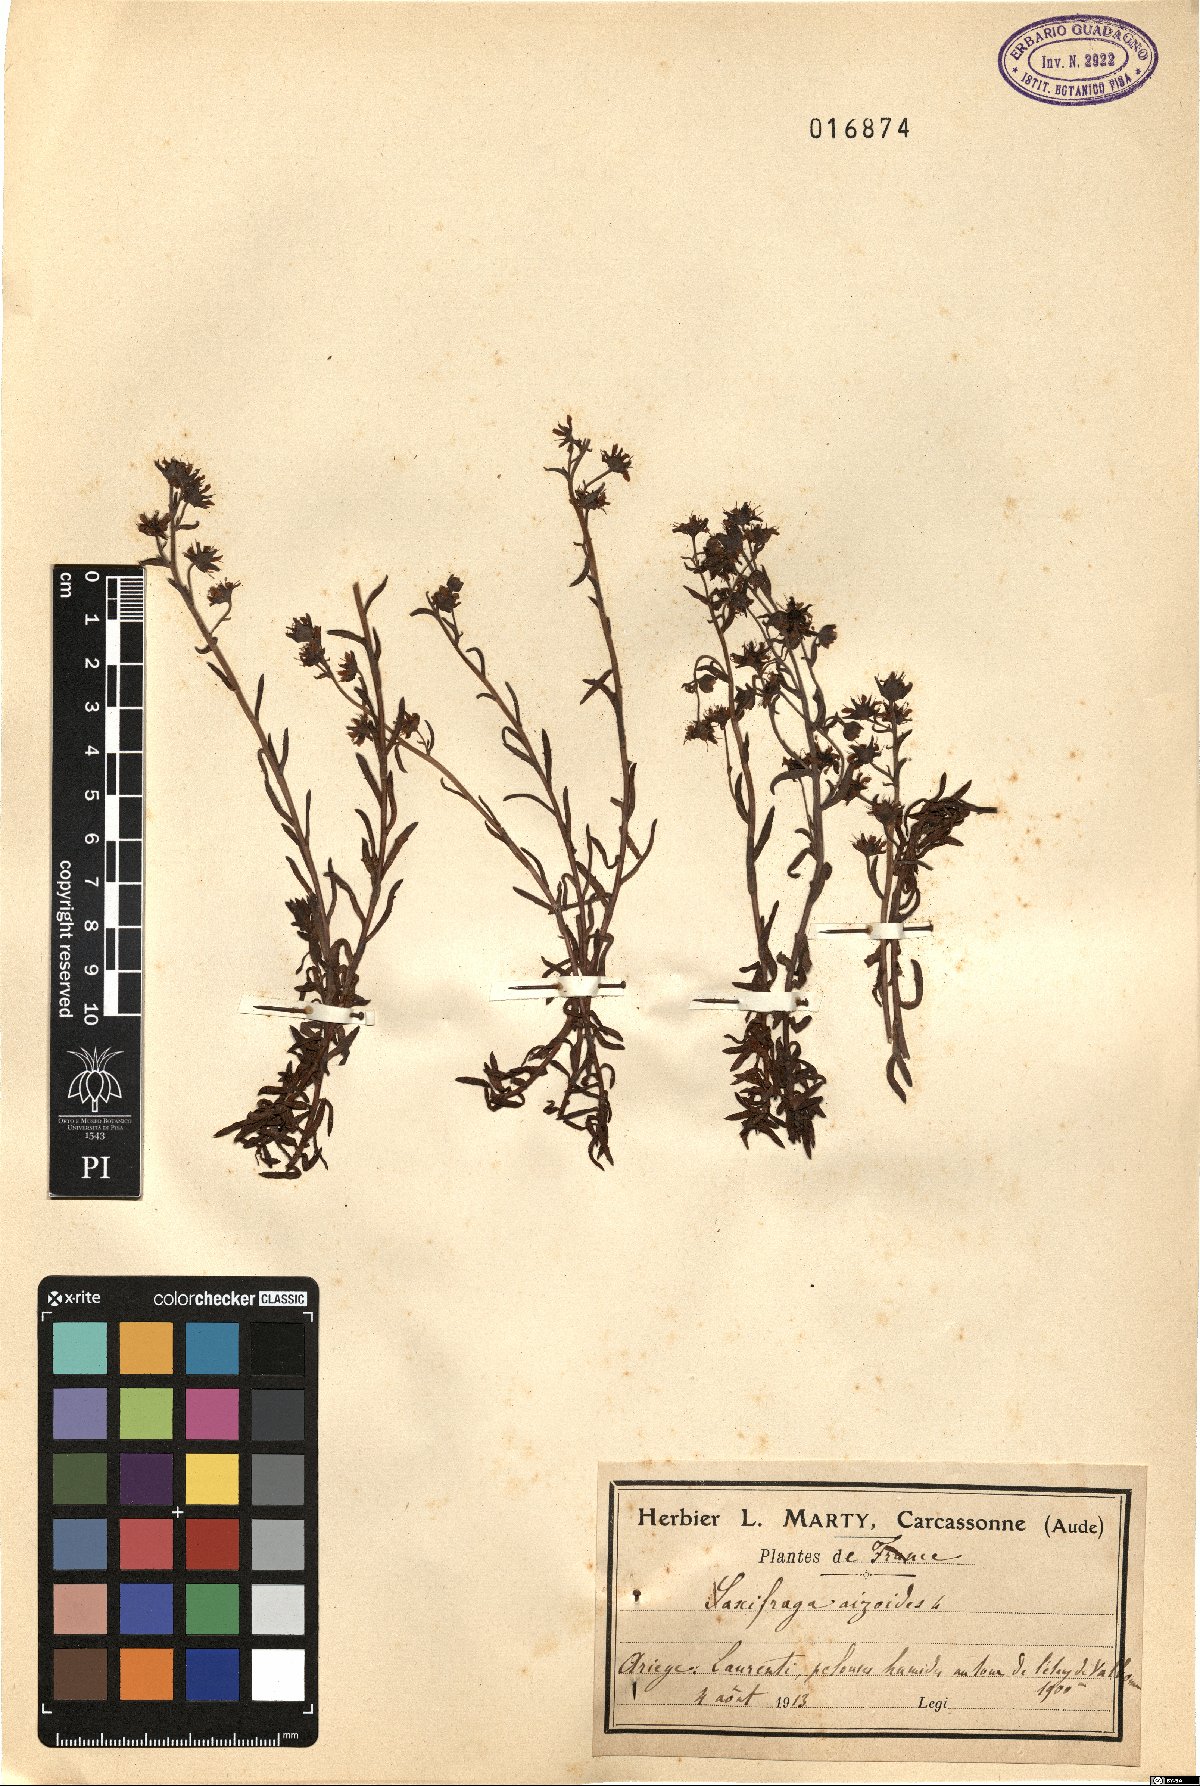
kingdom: Plantae
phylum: Tracheophyta
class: Magnoliopsida
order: Saxifragales
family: Saxifragaceae
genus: Saxifraga
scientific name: Saxifraga aizoides
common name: Yellow mountain saxifrage
